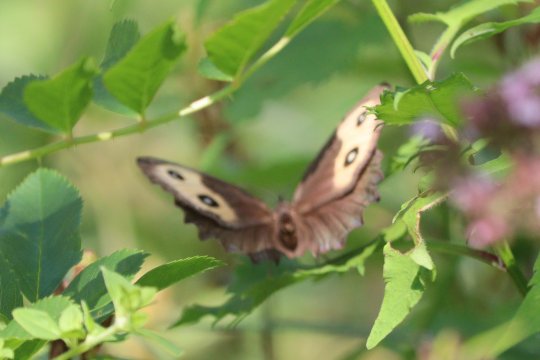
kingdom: Animalia
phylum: Arthropoda
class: Insecta
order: Lepidoptera
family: Nymphalidae
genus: Cercyonis
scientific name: Cercyonis pegala
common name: Common Wood-Nymph
